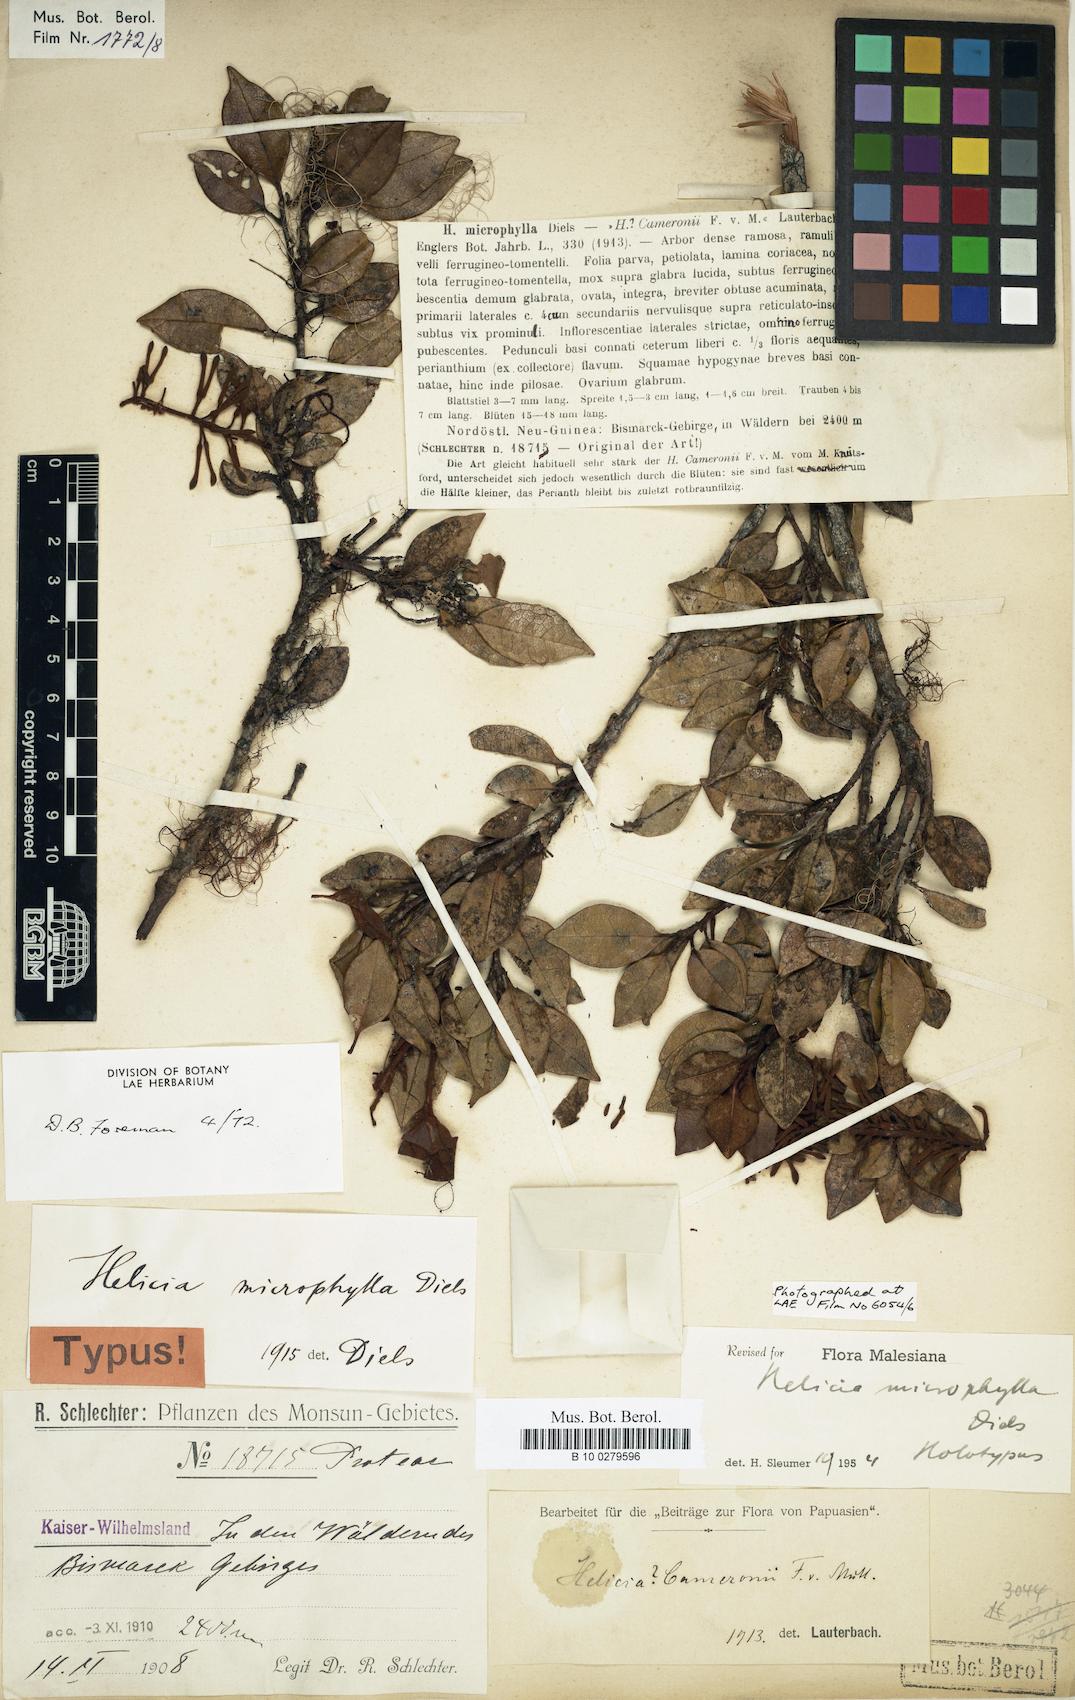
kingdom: Plantae
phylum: Tracheophyta
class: Magnoliopsida
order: Proteales
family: Proteaceae
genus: Helicia
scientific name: Helicia microphylla
